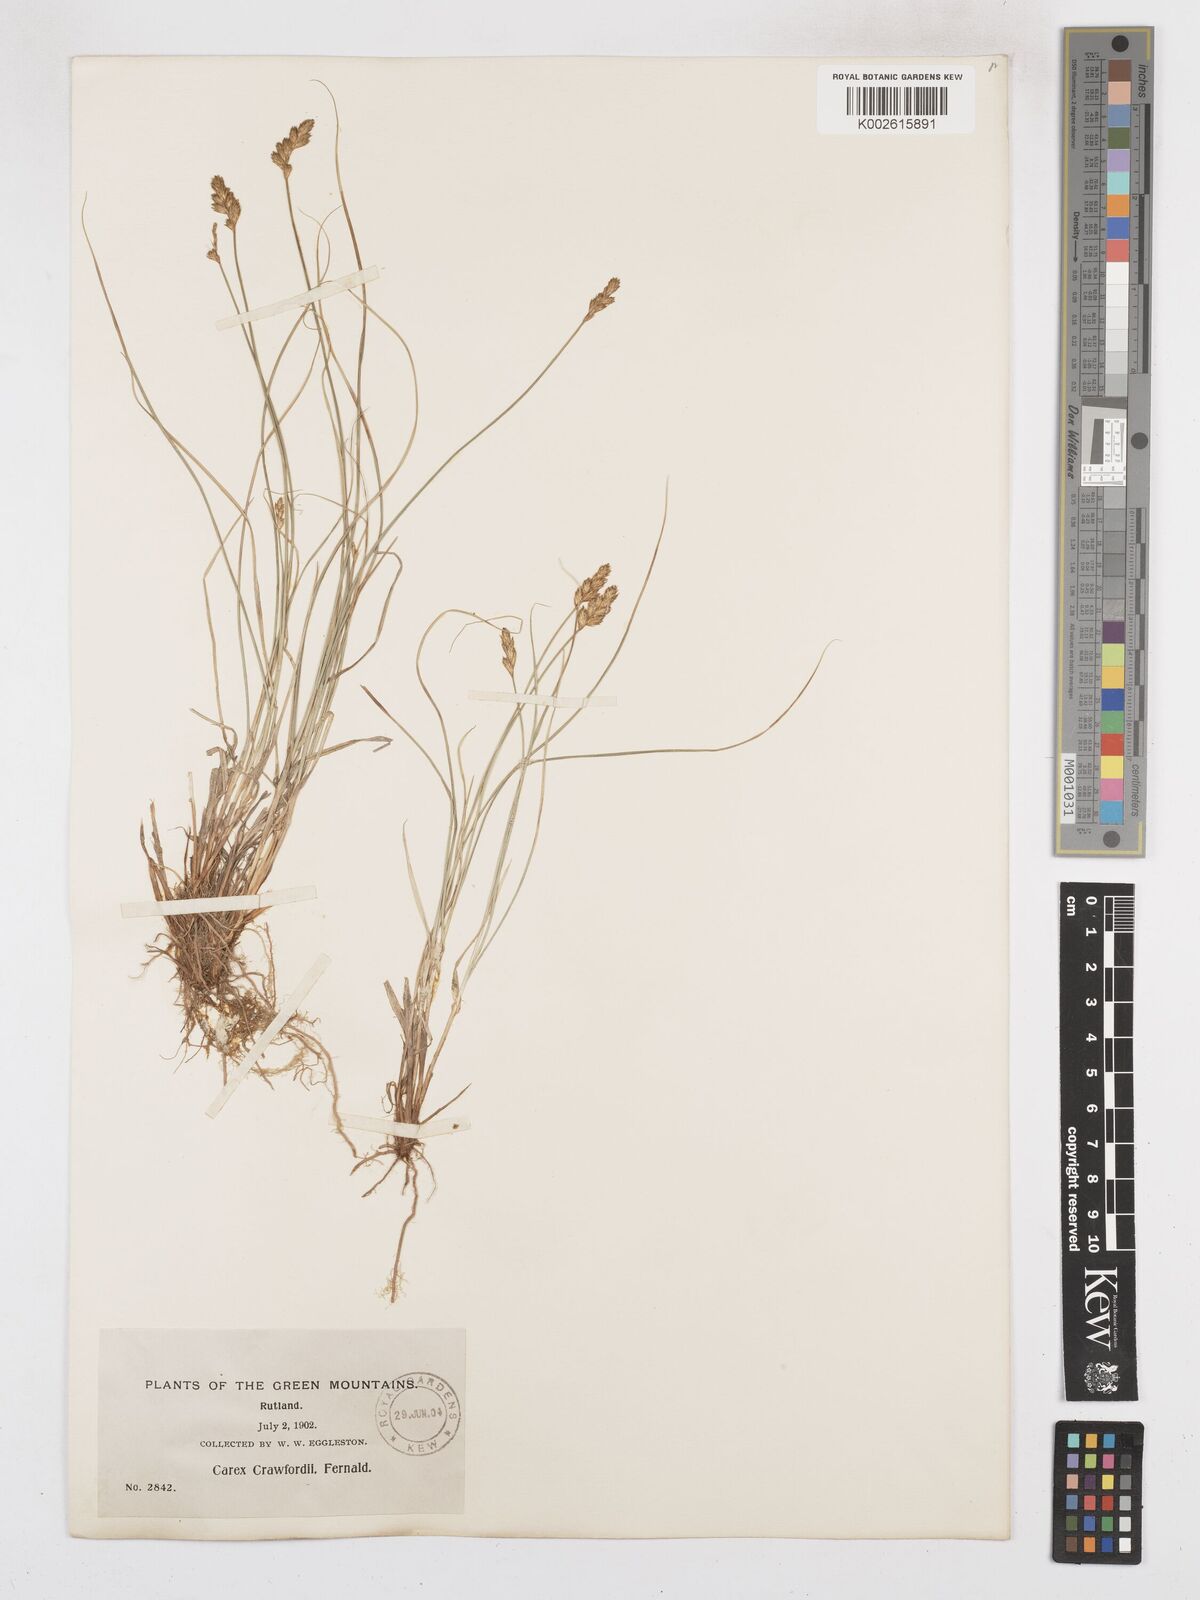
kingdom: Plantae
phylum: Tracheophyta
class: Liliopsida
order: Poales
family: Cyperaceae
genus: Carex
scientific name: Carex crawfordii
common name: Crawford's sedge
